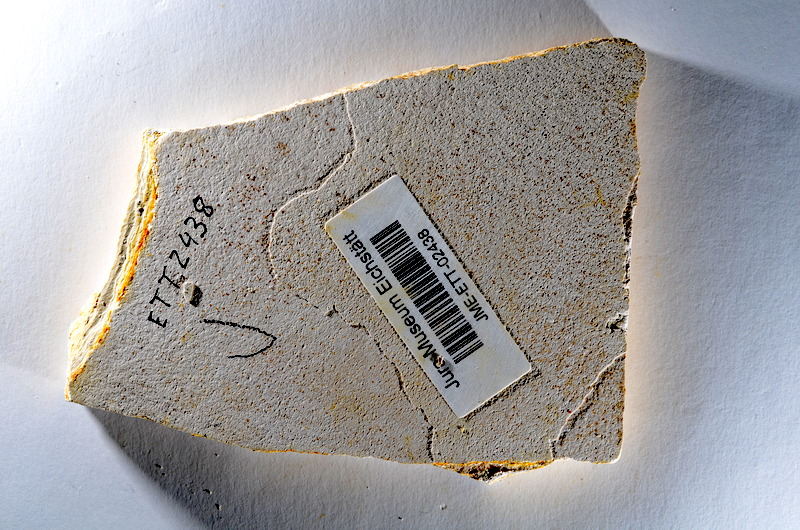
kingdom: Animalia
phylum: Chordata
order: Salmoniformes
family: Orthogonikleithridae
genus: Orthogonikleithrus
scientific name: Orthogonikleithrus hoelli
